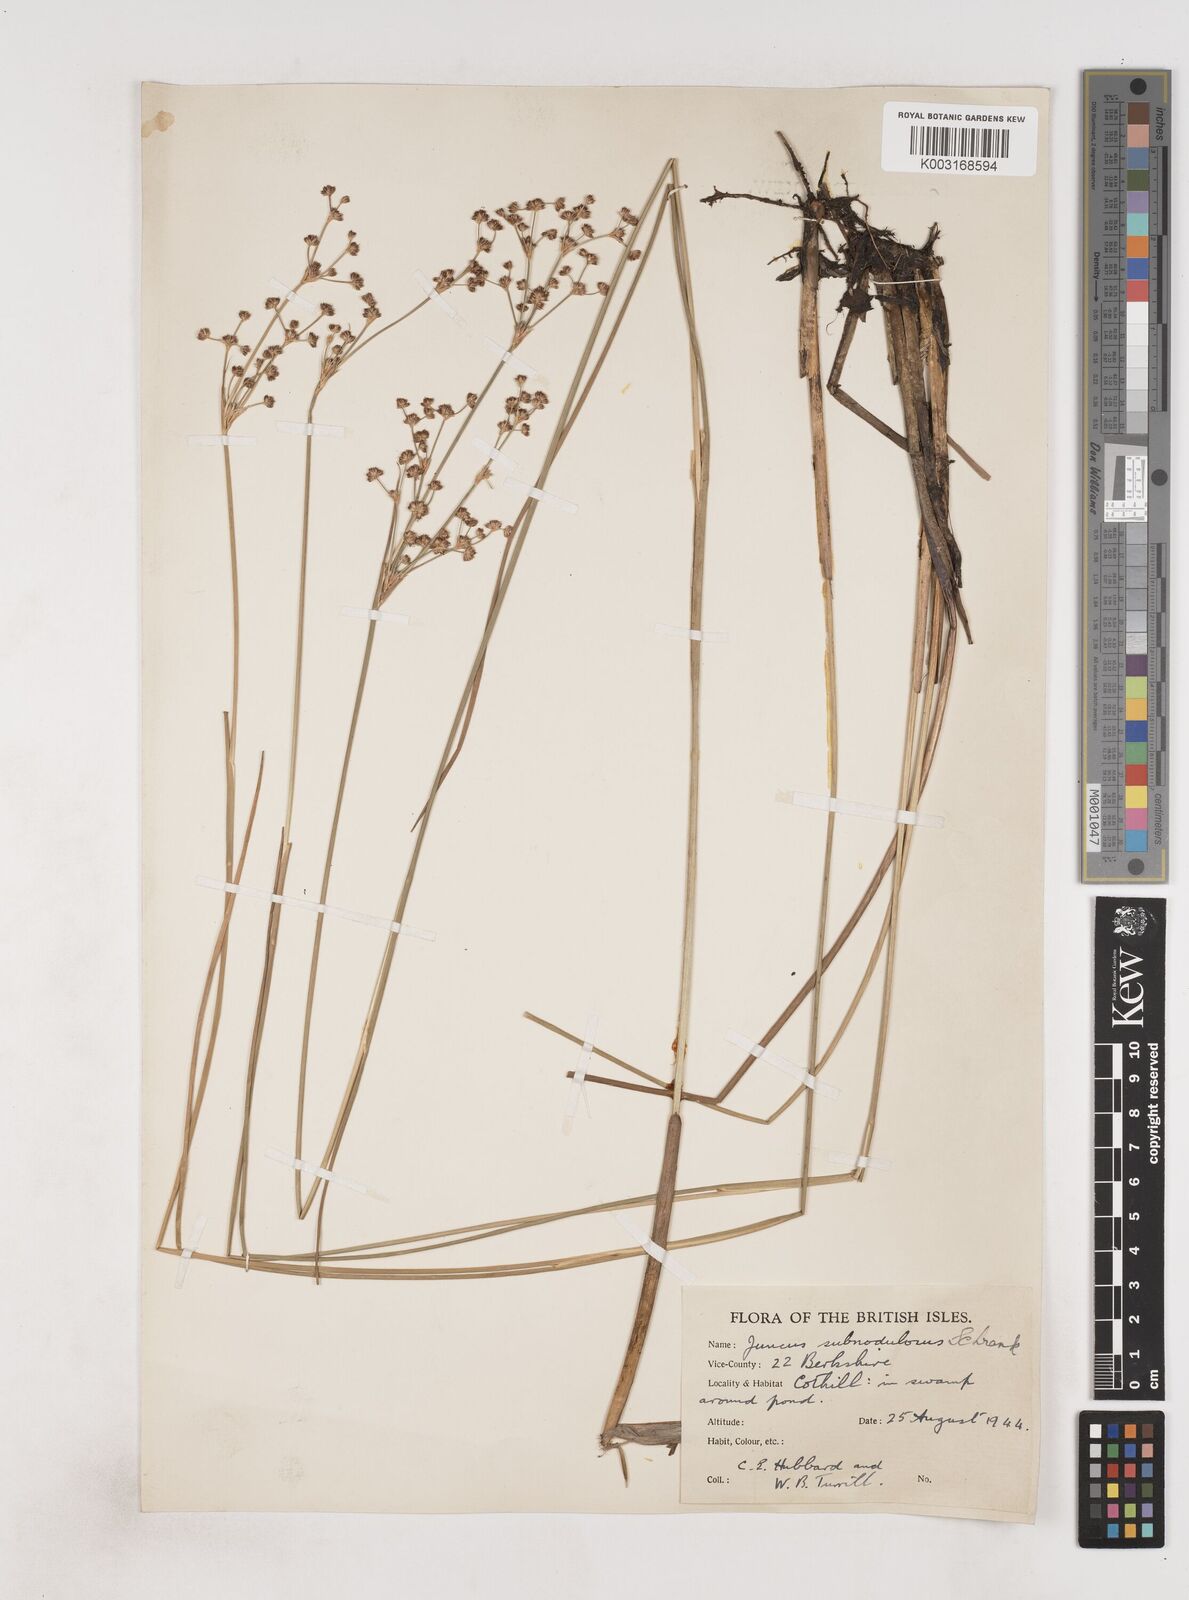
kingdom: Plantae
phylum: Tracheophyta
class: Liliopsida
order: Poales
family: Juncaceae
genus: Juncus
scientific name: Juncus subnodulosus
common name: Blunt-flowered rush
